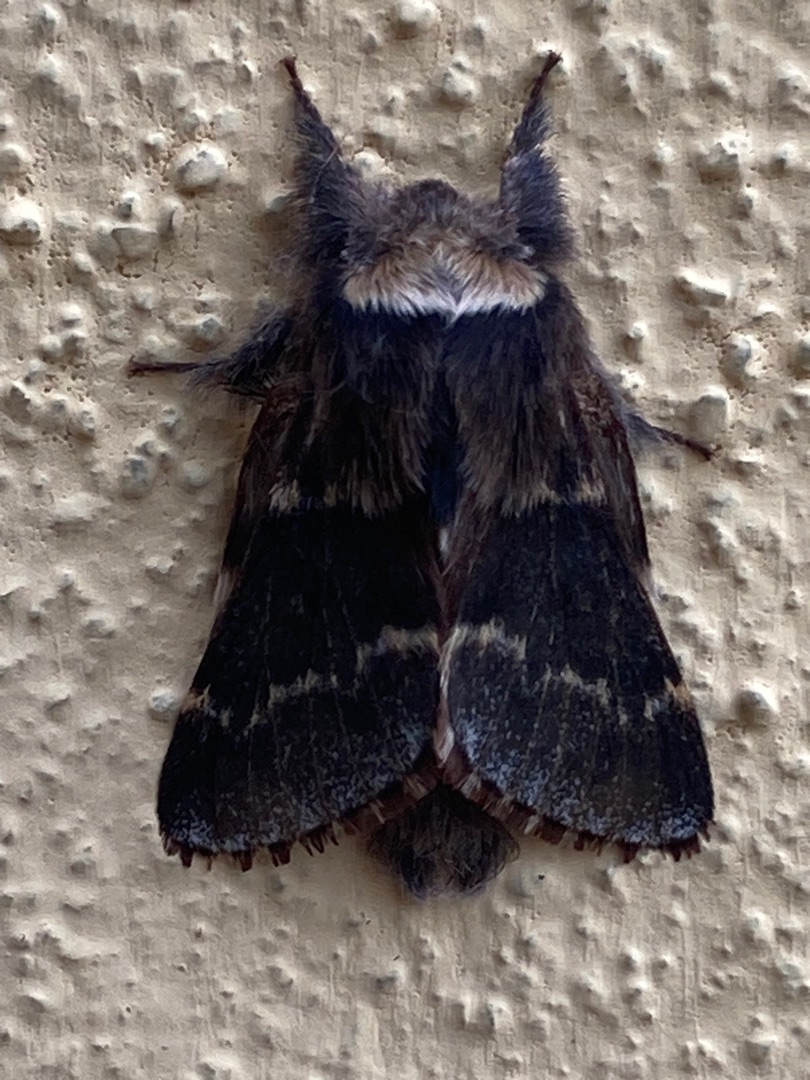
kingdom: Animalia
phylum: Arthropoda
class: Insecta
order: Lepidoptera
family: Lasiocampidae
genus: Poecilocampa
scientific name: Poecilocampa populi
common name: Poppelspinder
